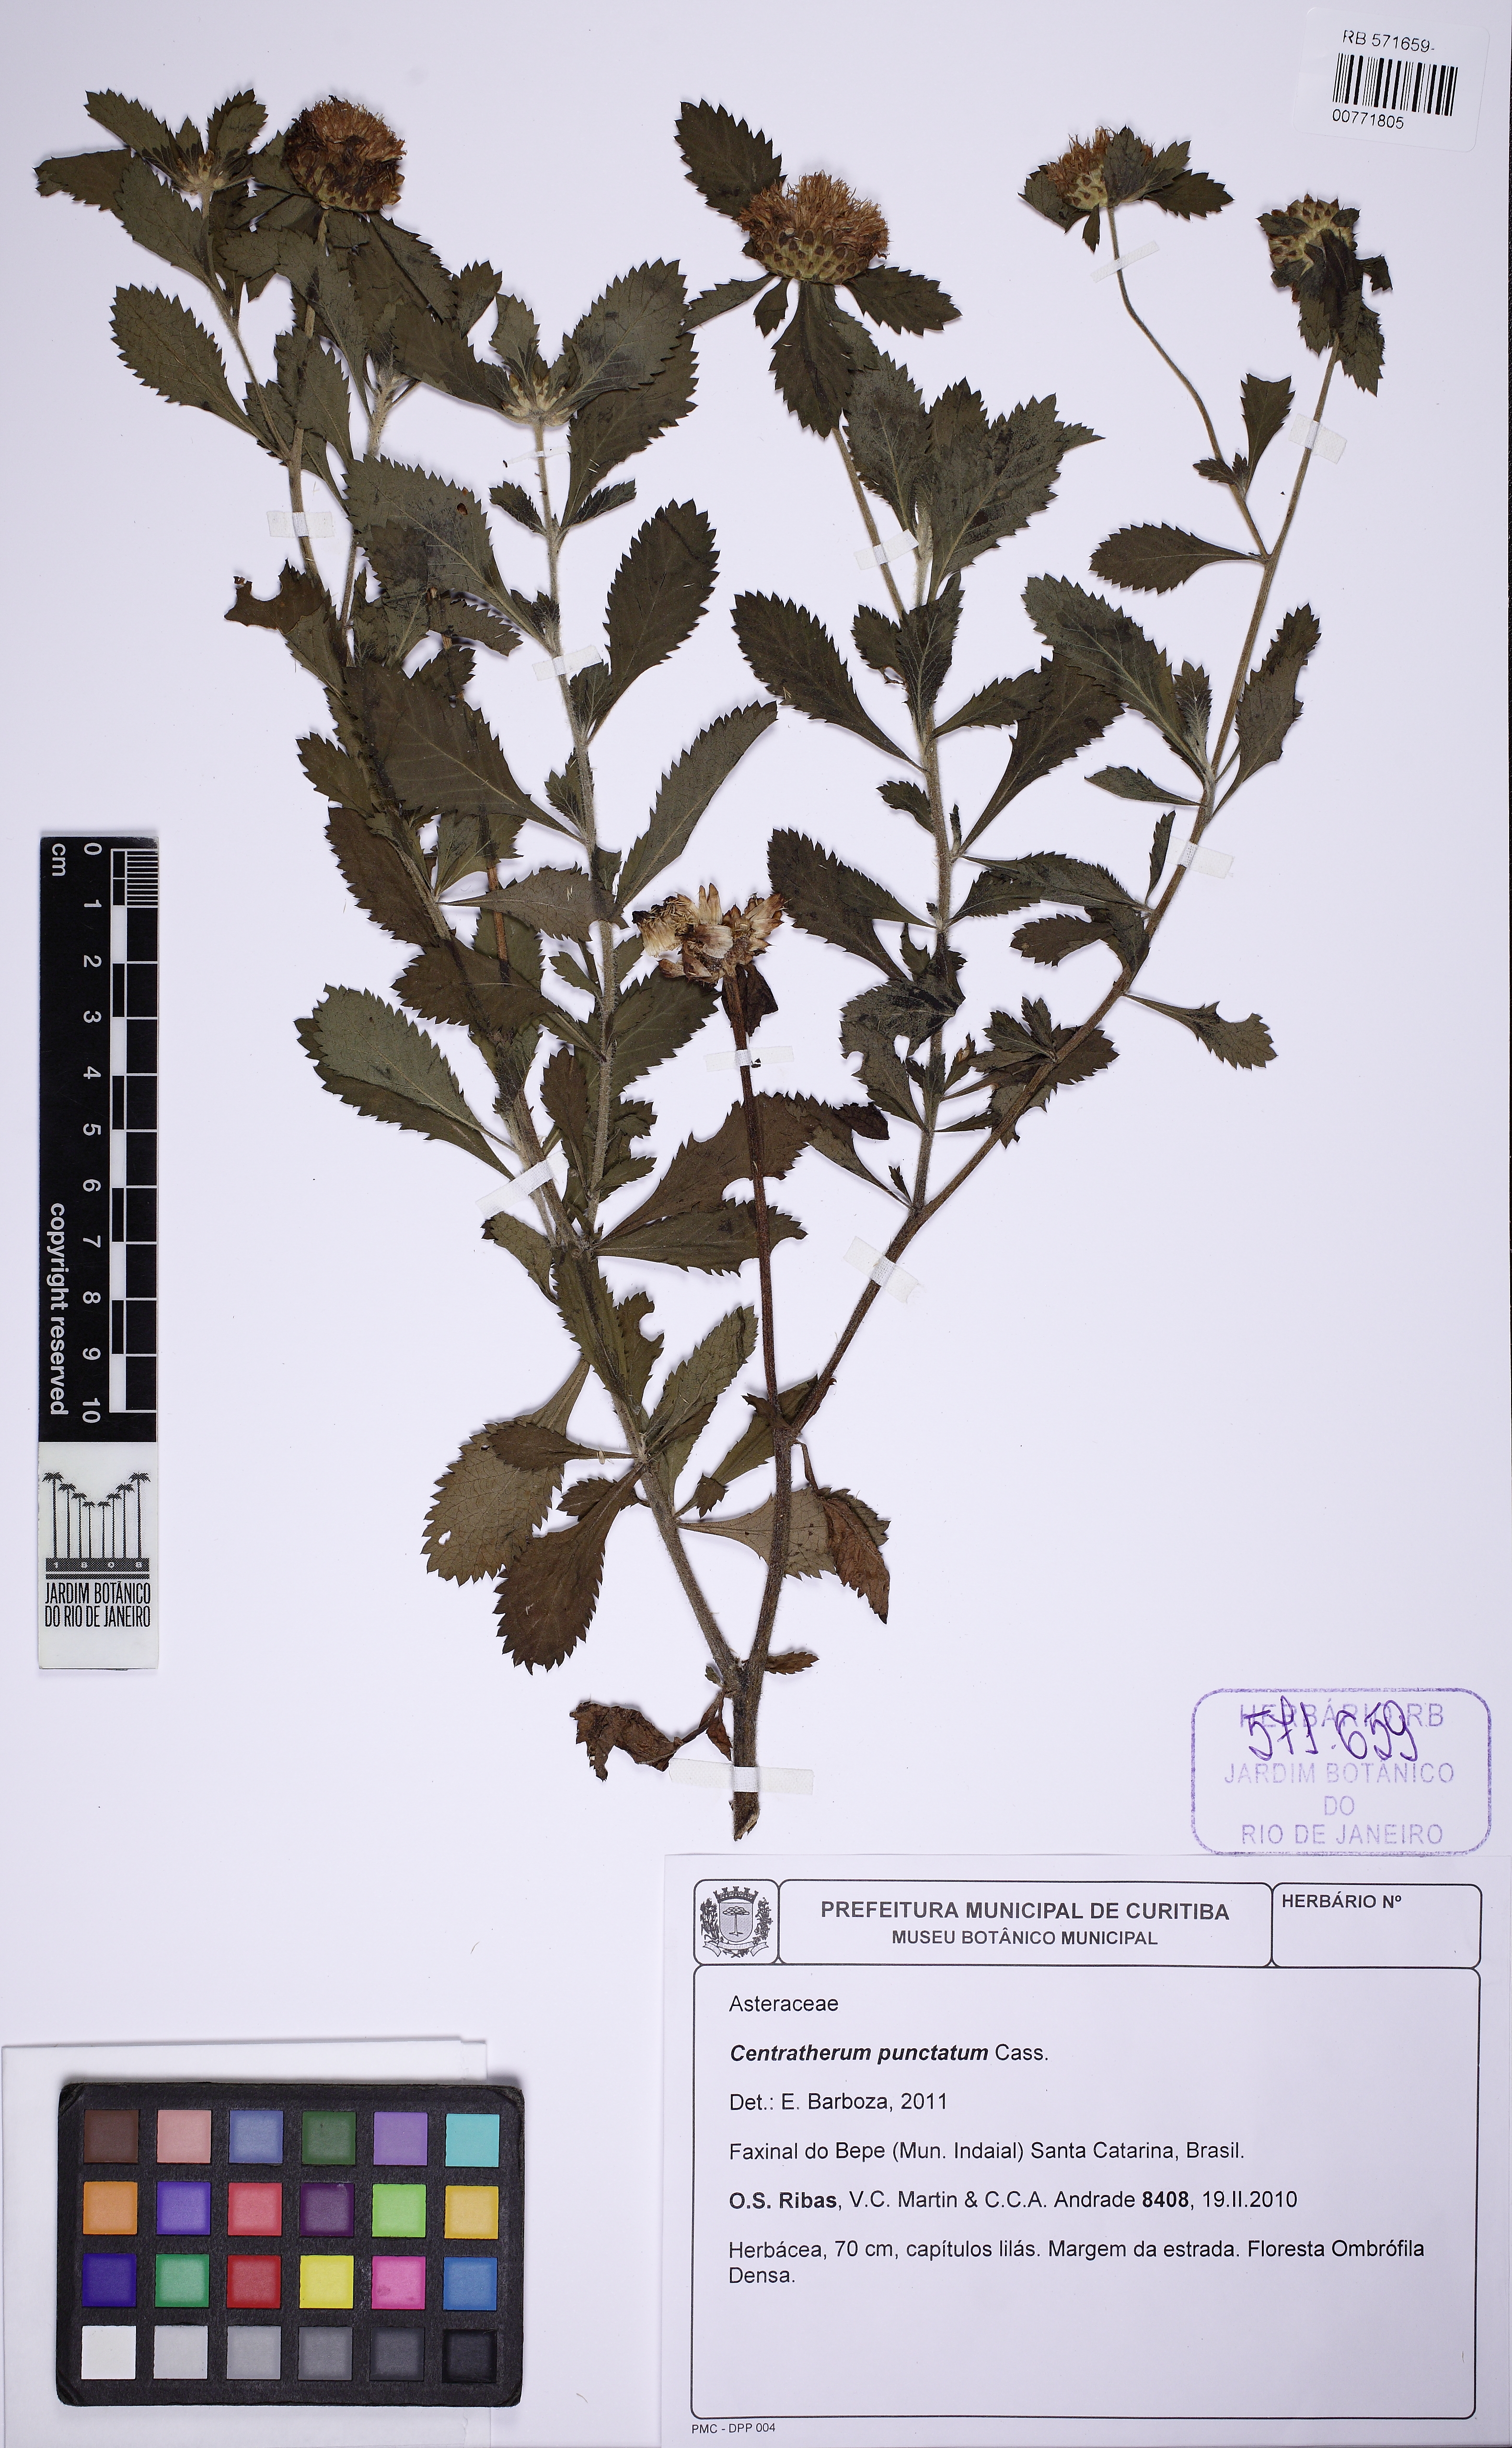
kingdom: Plantae
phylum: Tracheophyta
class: Magnoliopsida
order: Asterales
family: Asteraceae
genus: Centratherum
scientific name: Centratherum punctatum
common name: Larkdaisy
